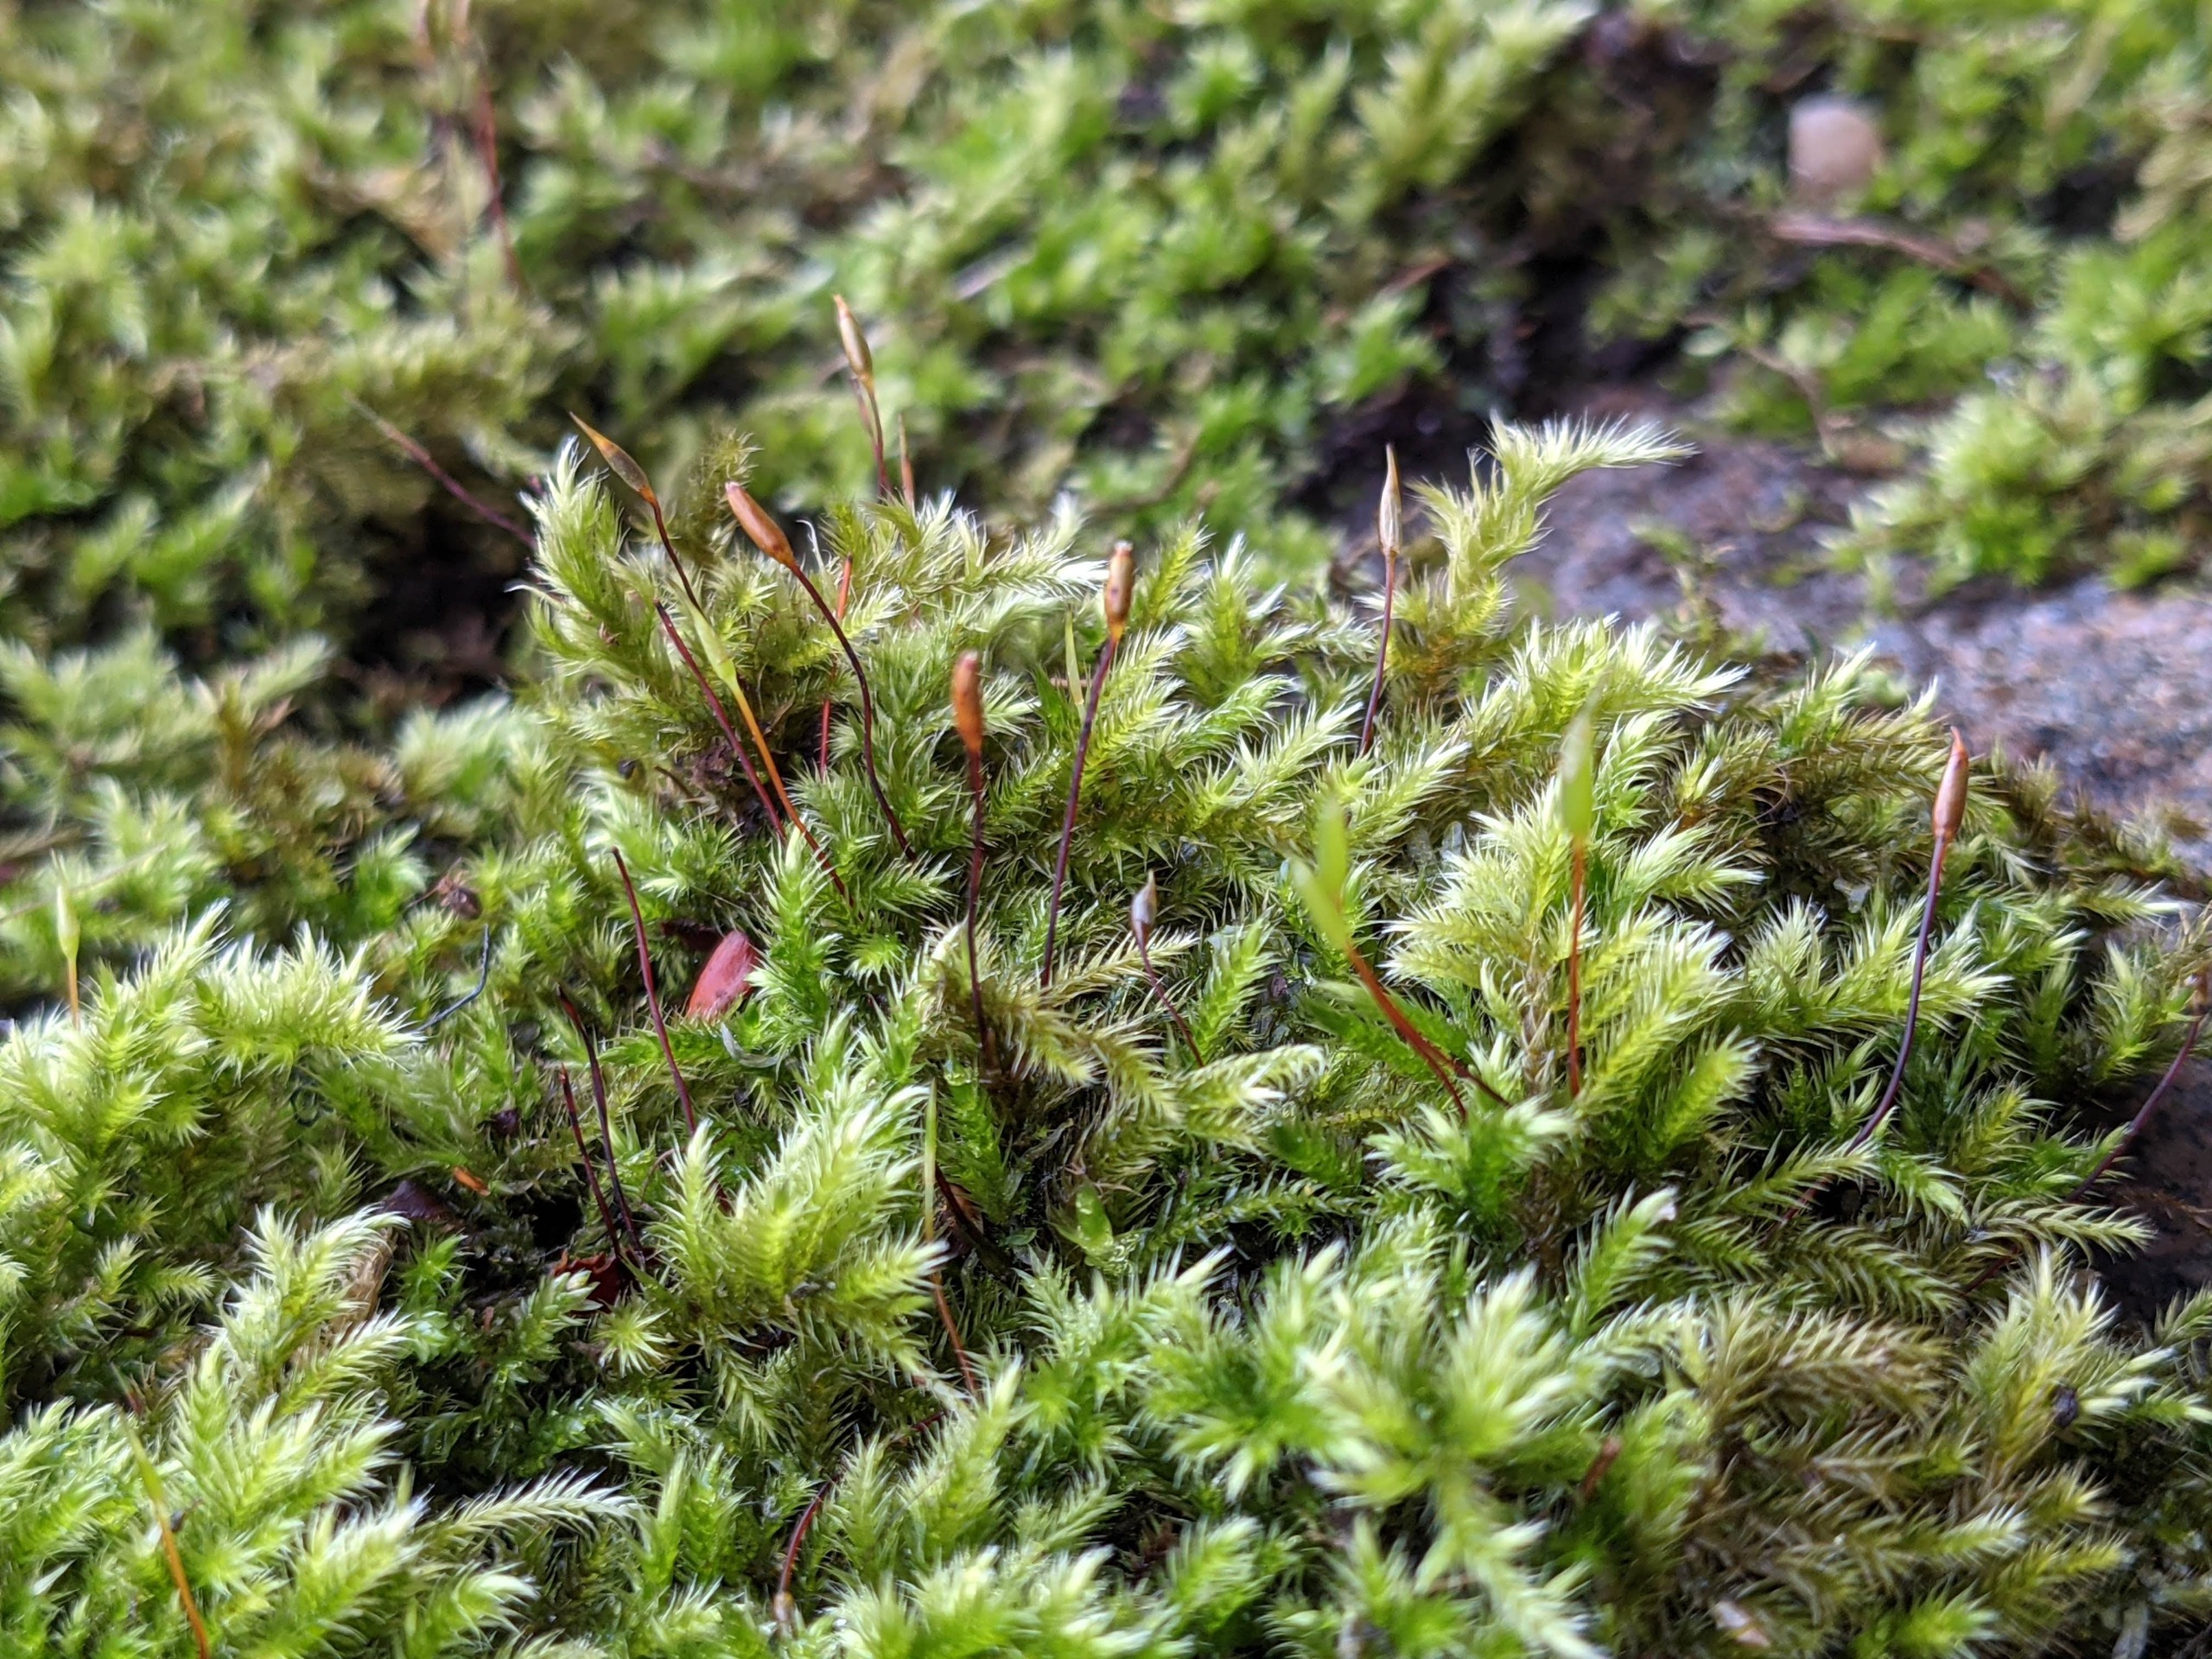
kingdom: Plantae
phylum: Bryophyta
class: Bryopsida
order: Hypnales
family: Brachytheciaceae
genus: Homalothecium
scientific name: Homalothecium sericeum
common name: Krybende silkemos
